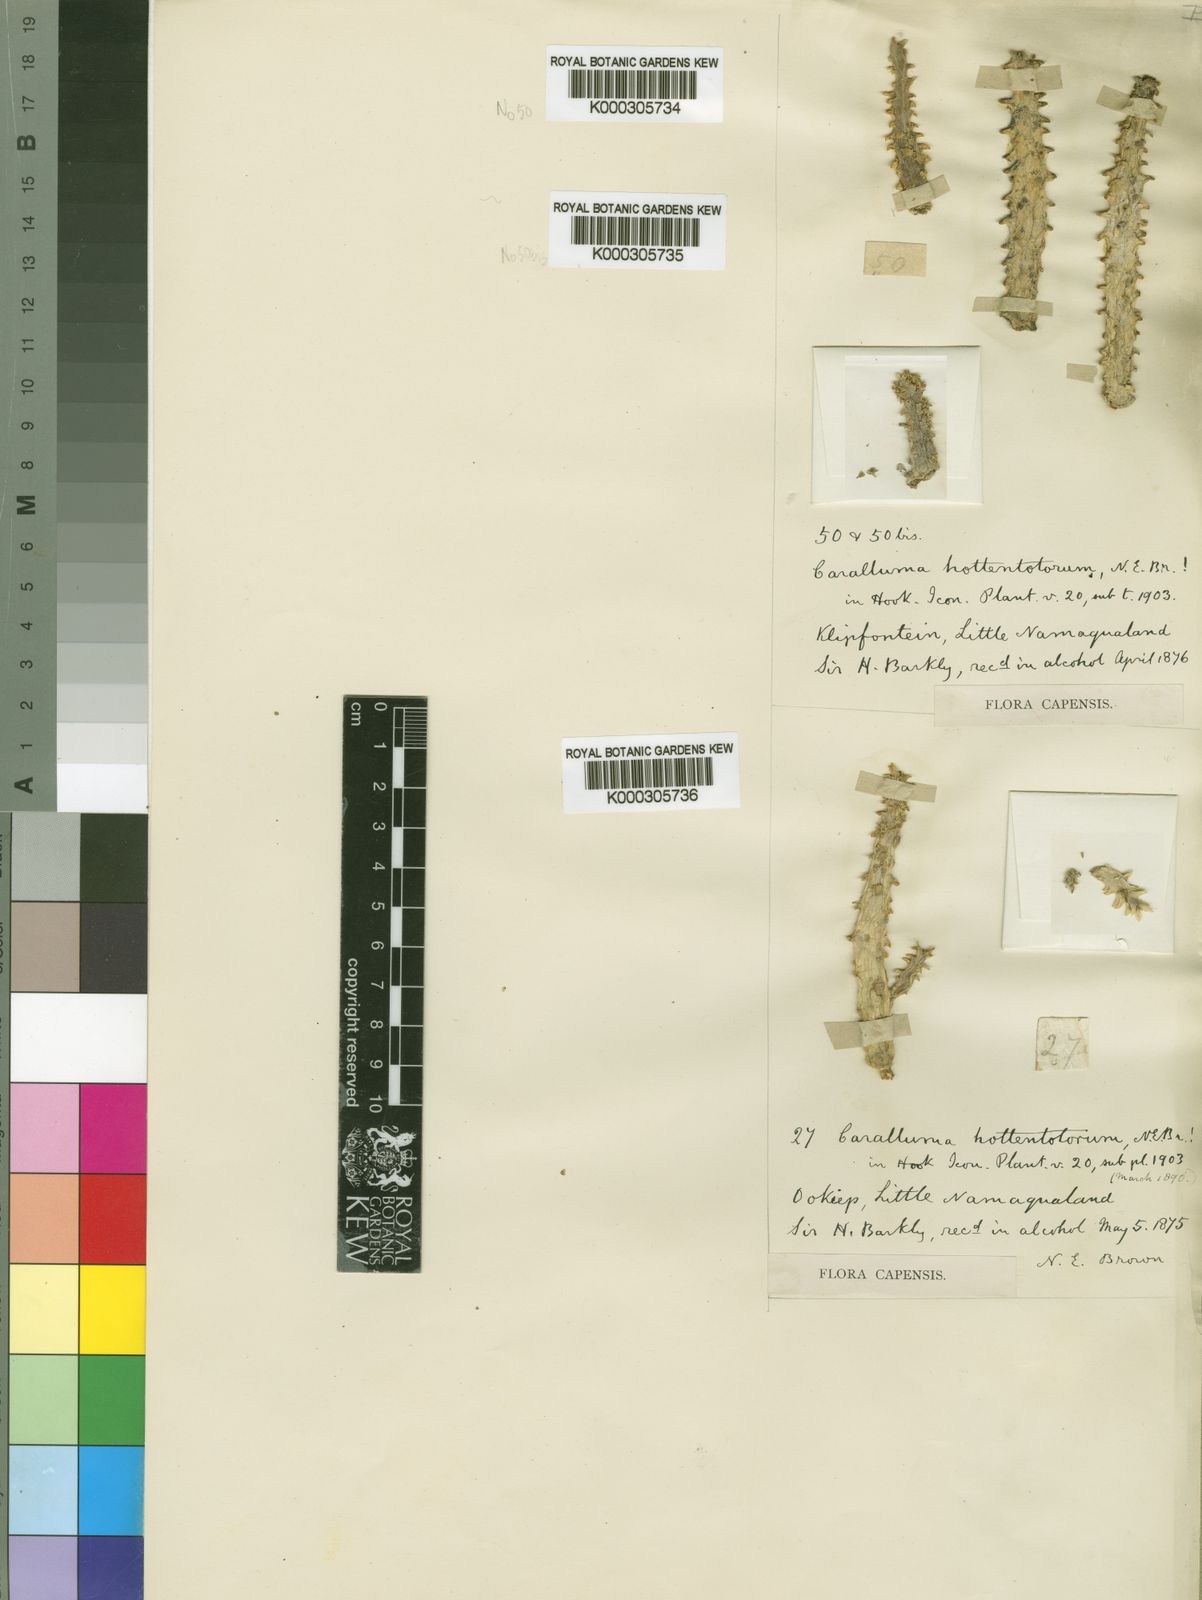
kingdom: Plantae
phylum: Tracheophyta
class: Magnoliopsida
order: Gentianales
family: Apocynaceae
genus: Ceropegia
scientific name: Ceropegia incarnata
